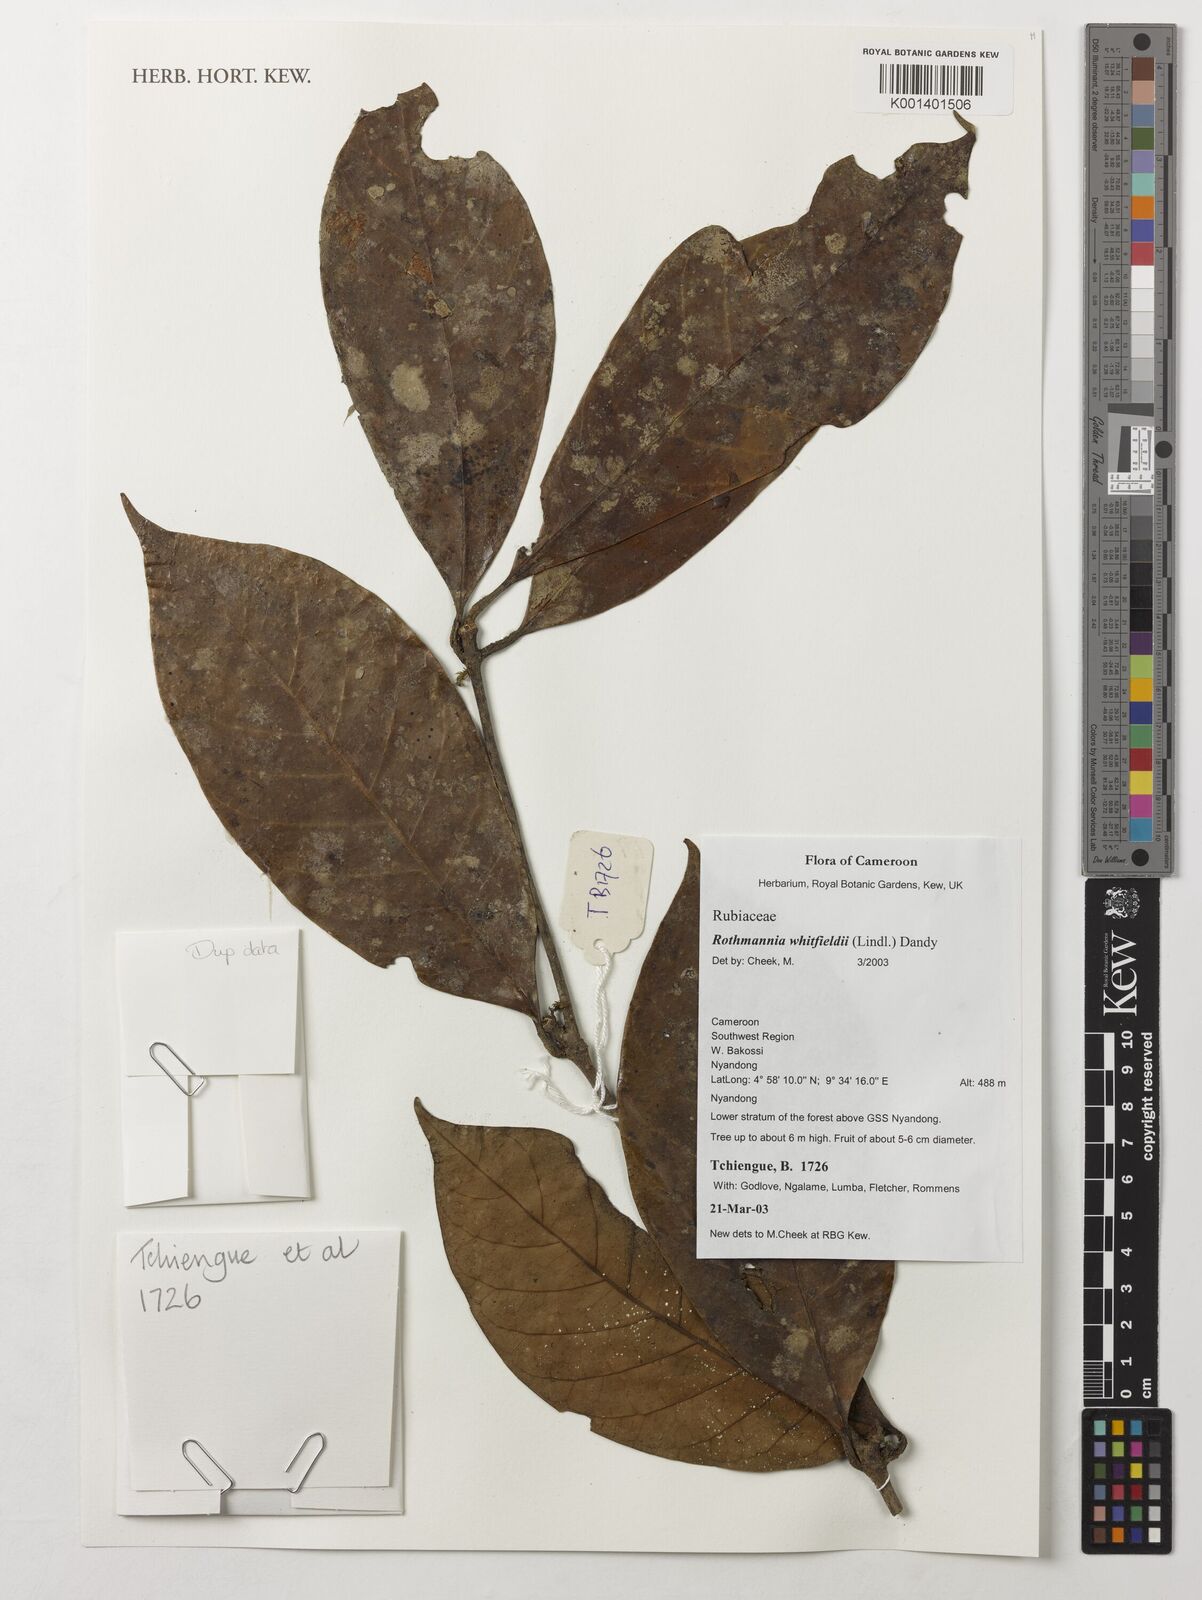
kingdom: Plantae
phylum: Tracheophyta
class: Magnoliopsida
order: Gentianales
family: Rubiaceae
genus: Rothmannia
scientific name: Rothmannia whitfieldii
